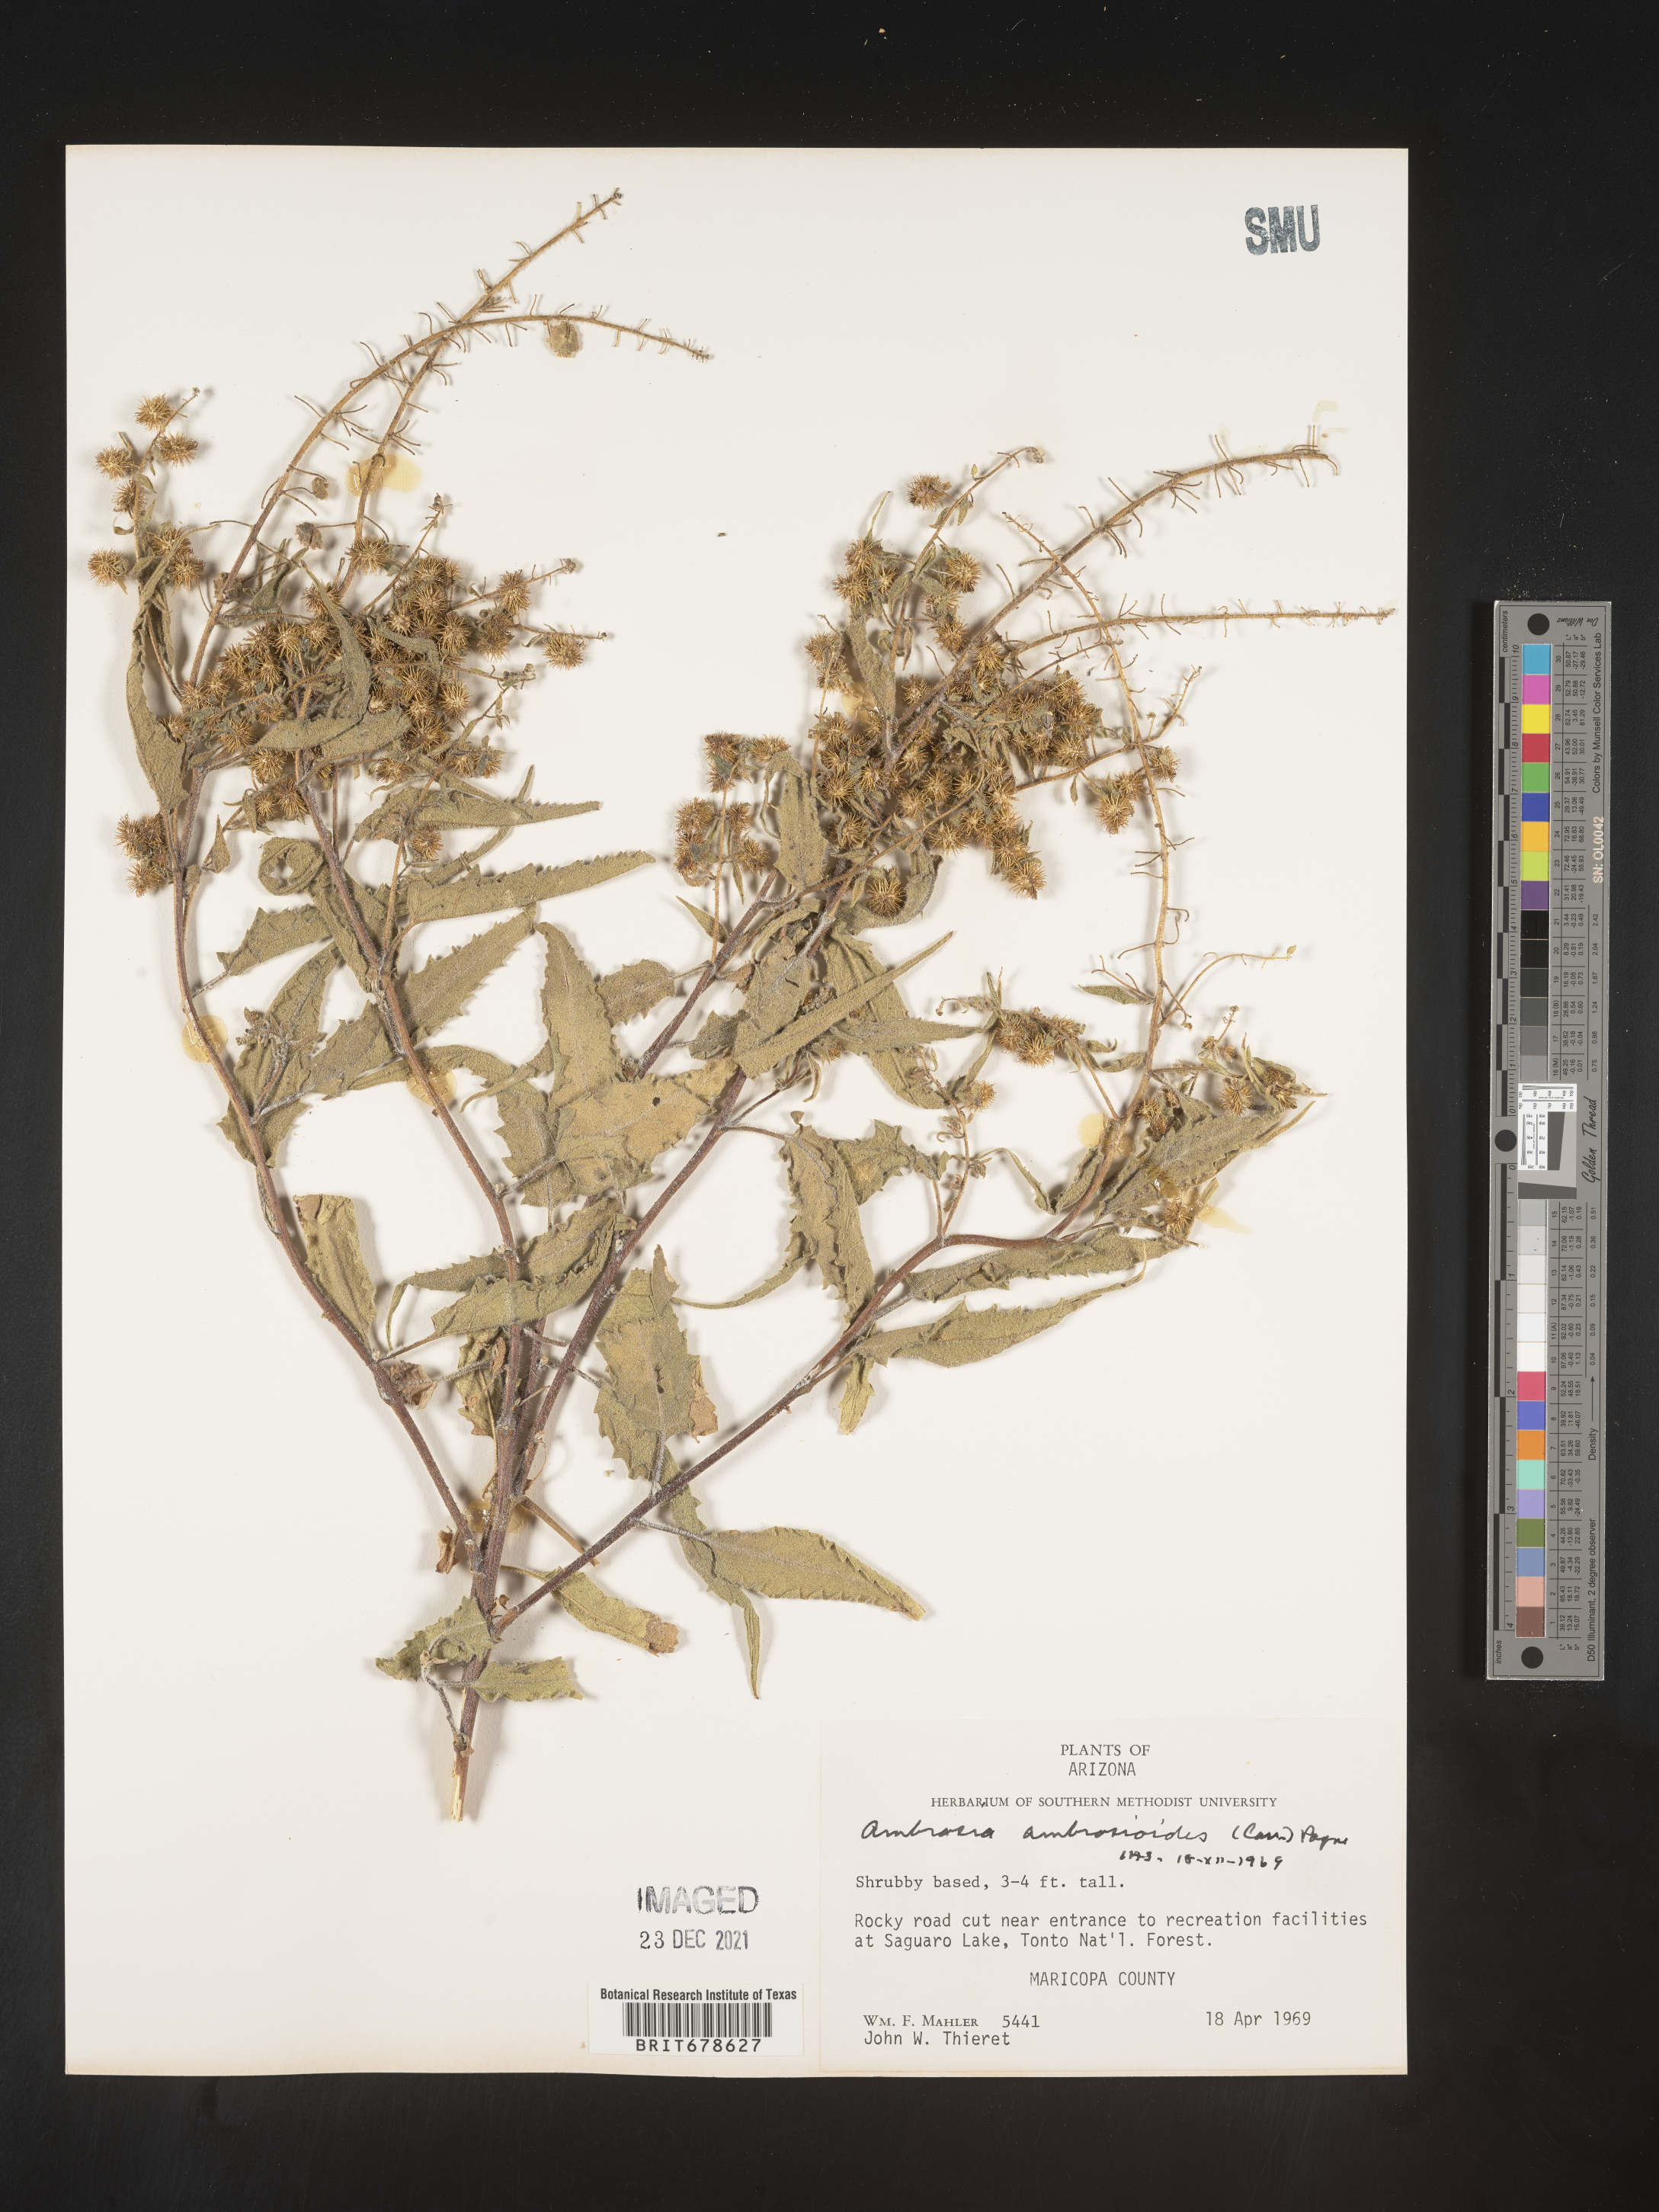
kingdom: Plantae
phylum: Tracheophyta
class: Magnoliopsida
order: Asterales
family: Asteraceae
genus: Ambrosia
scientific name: Ambrosia ambrosioides
